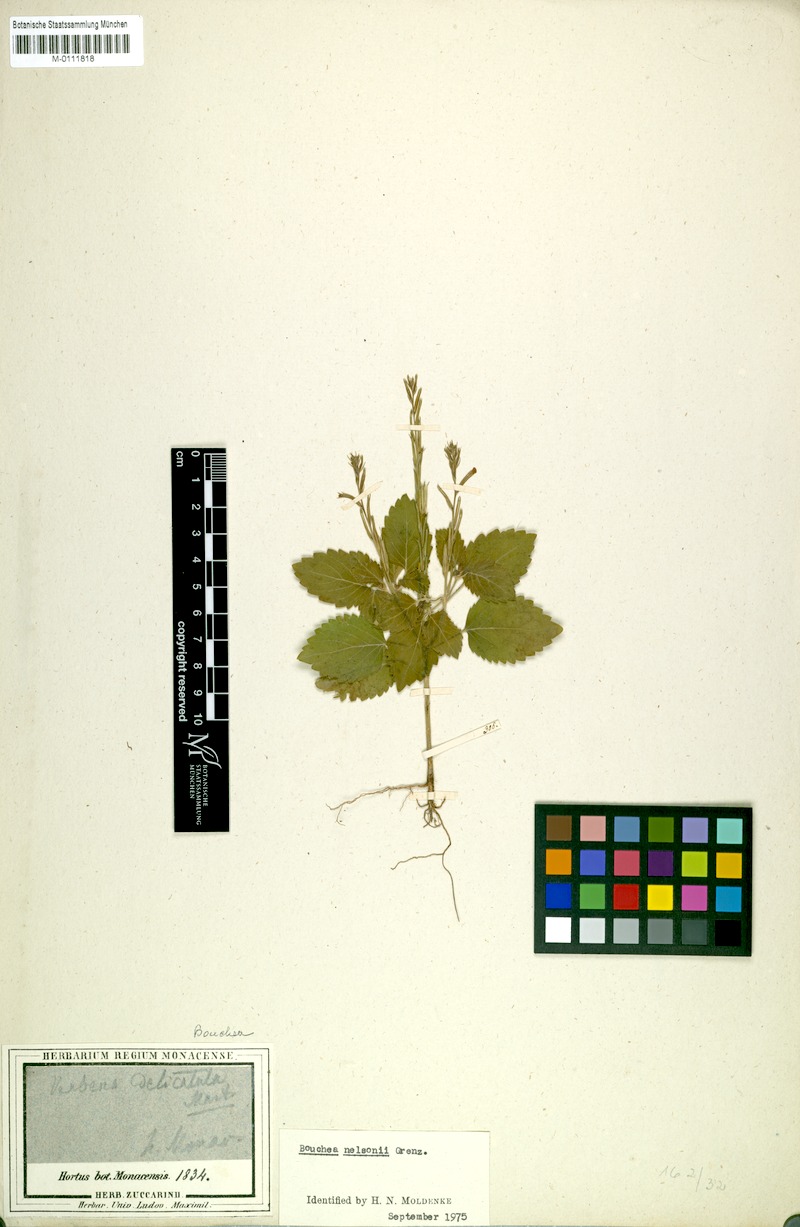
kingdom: Plantae
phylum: Tracheophyta
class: Magnoliopsida
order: Lamiales
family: Verbenaceae
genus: Verbena
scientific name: Verbena delicatula
